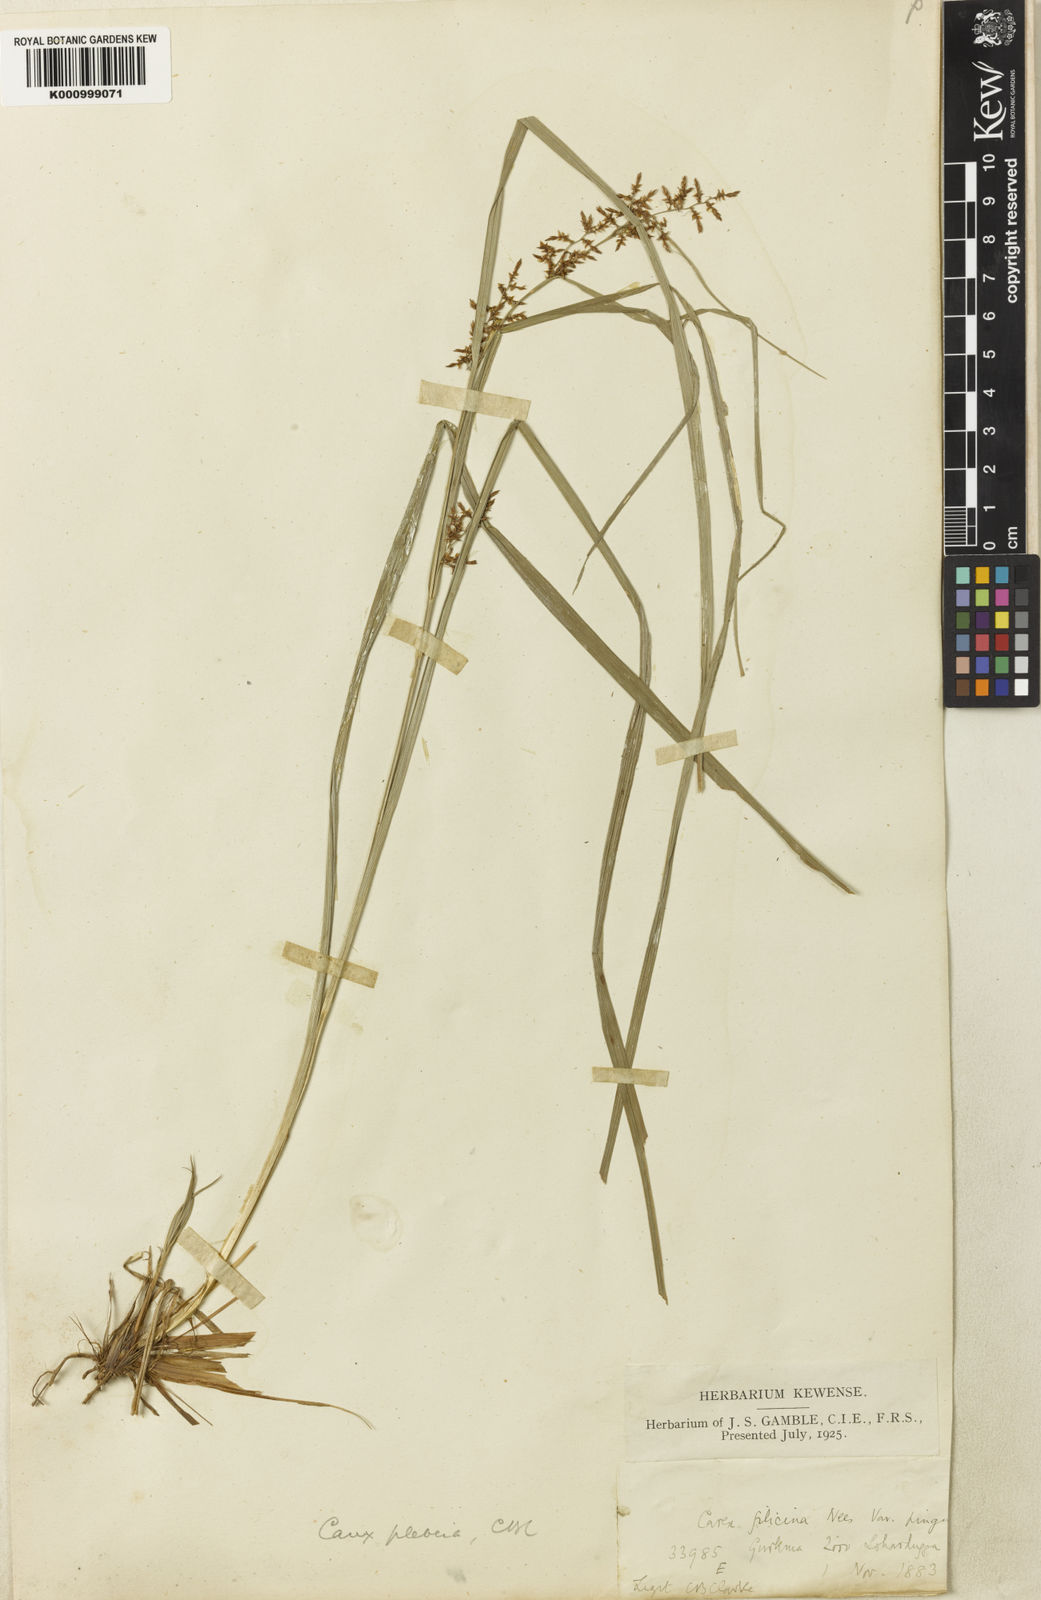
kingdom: Plantae
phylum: Tracheophyta
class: Liliopsida
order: Poales
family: Cyperaceae
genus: Carex
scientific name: Carex continua
